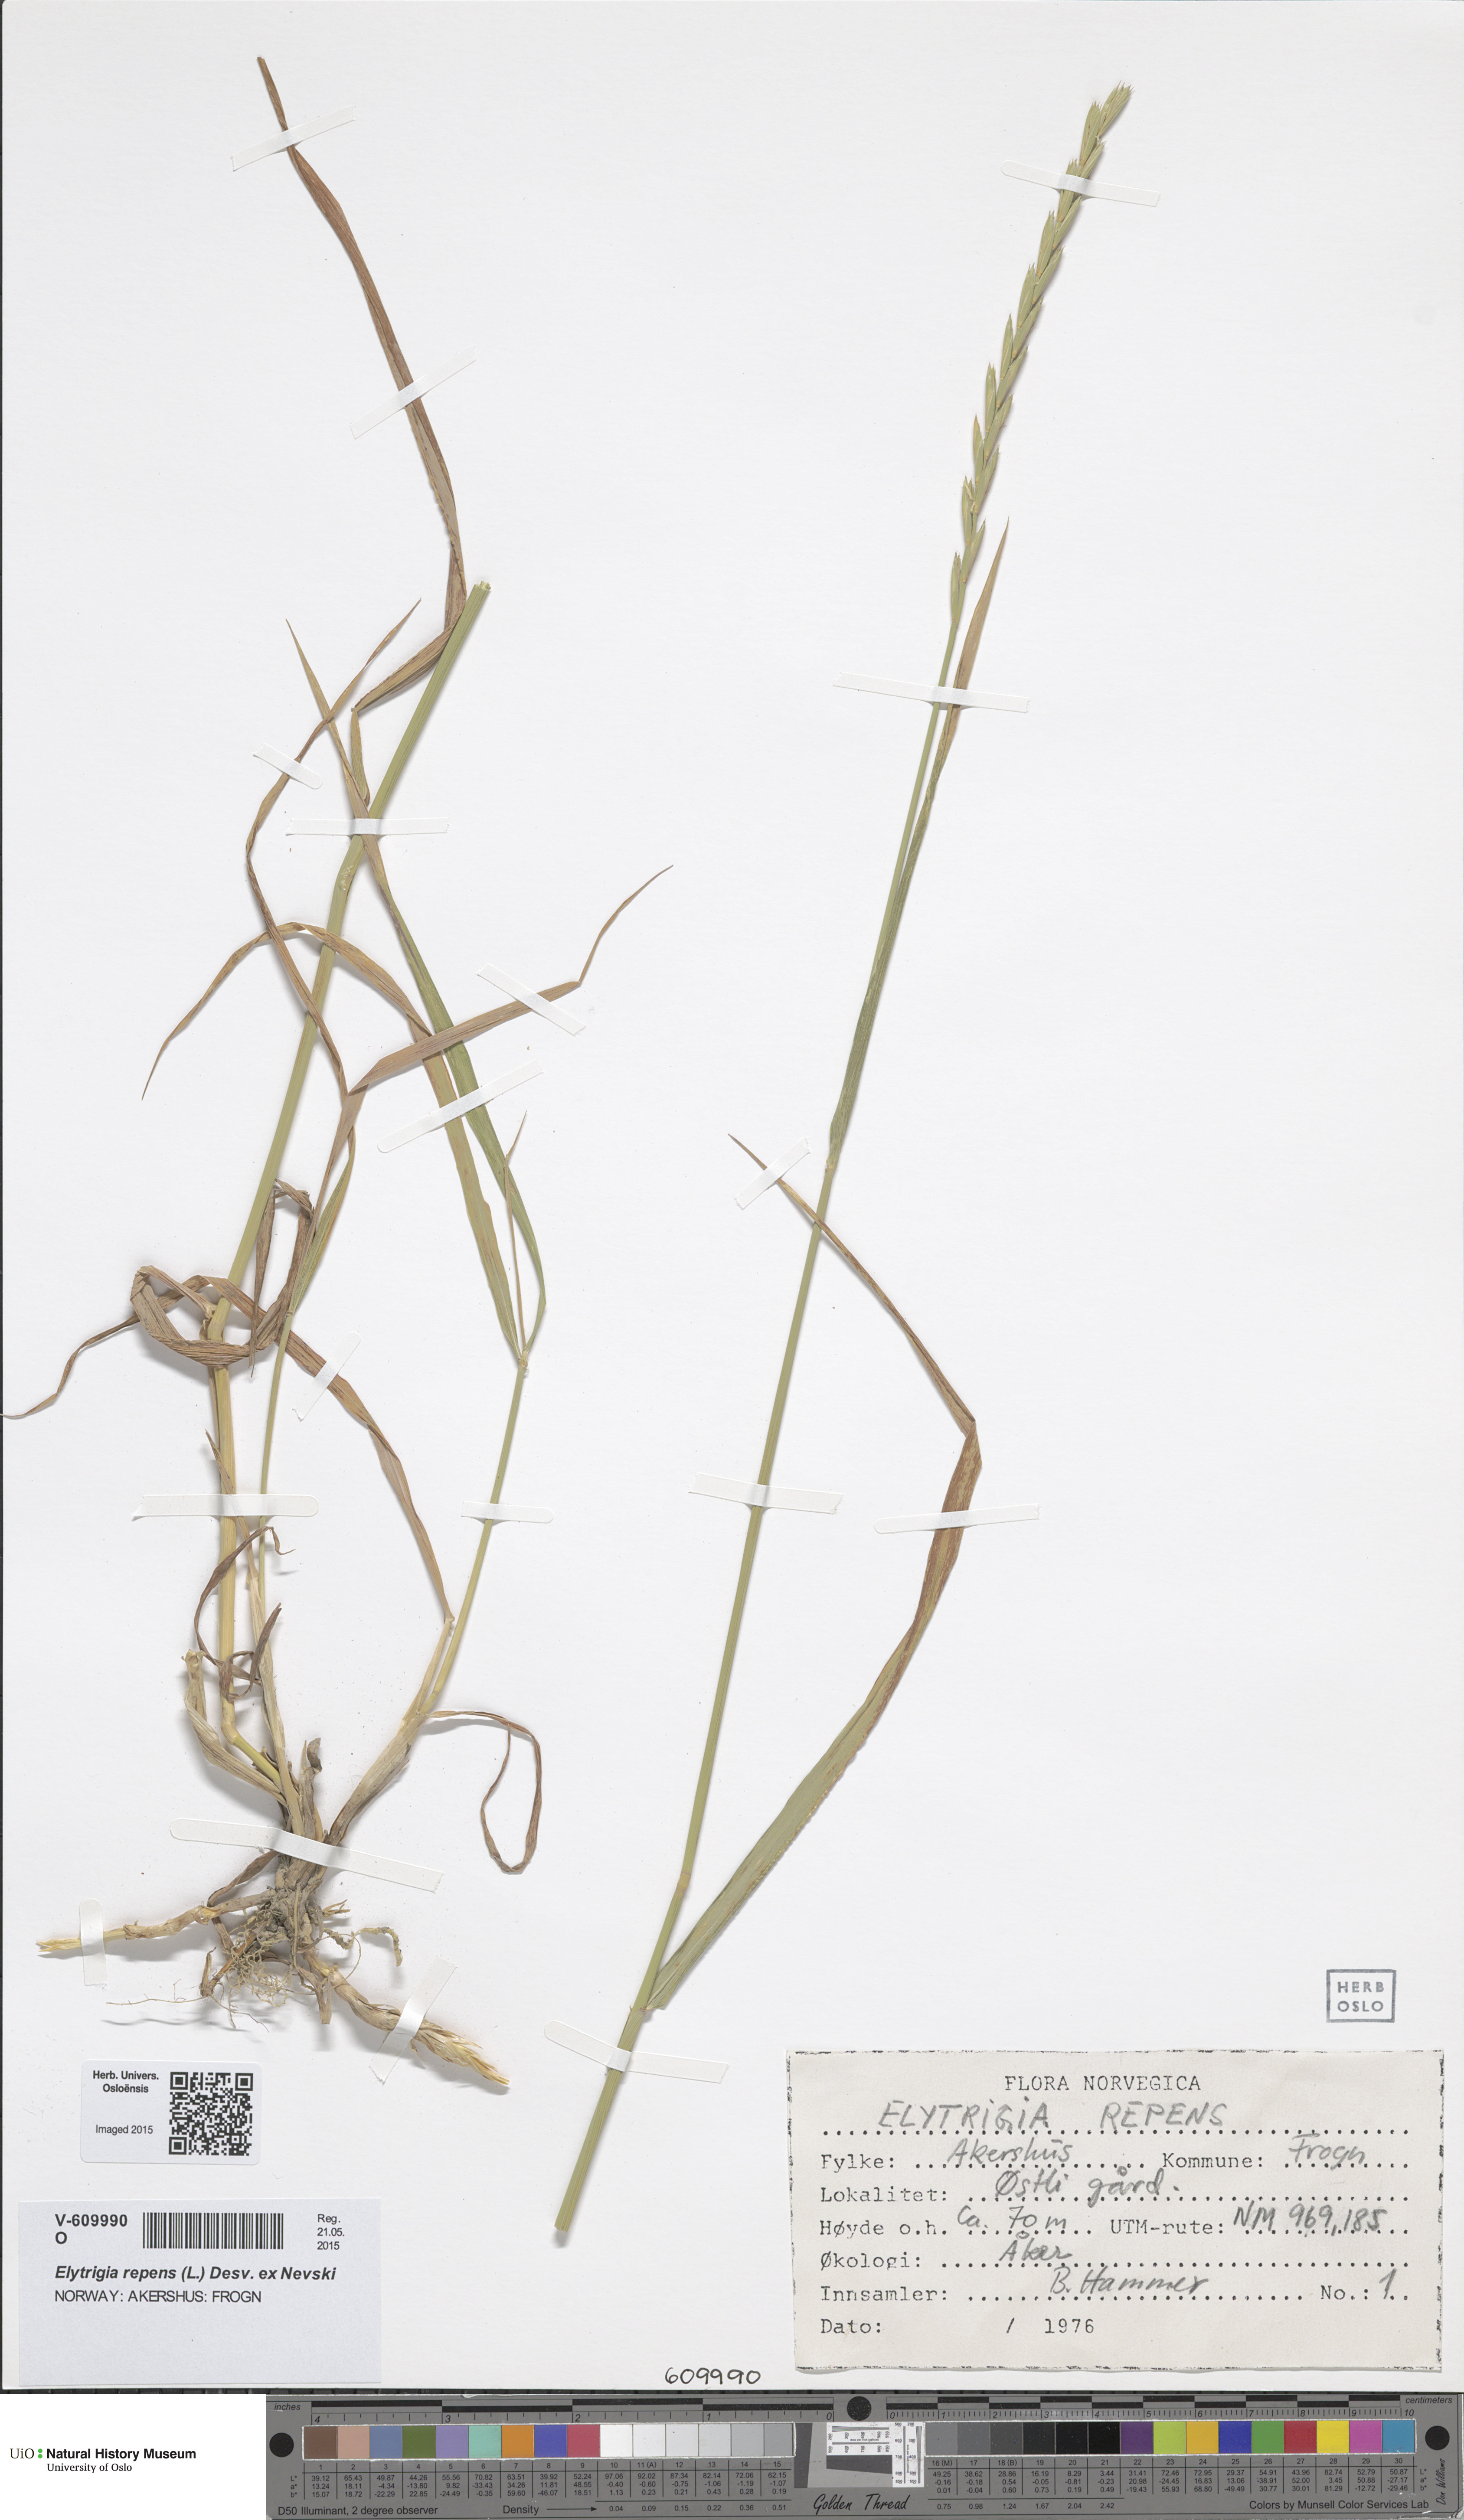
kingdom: Plantae
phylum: Tracheophyta
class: Liliopsida
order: Poales
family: Poaceae
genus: Elymus
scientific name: Elymus repens
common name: Quackgrass
